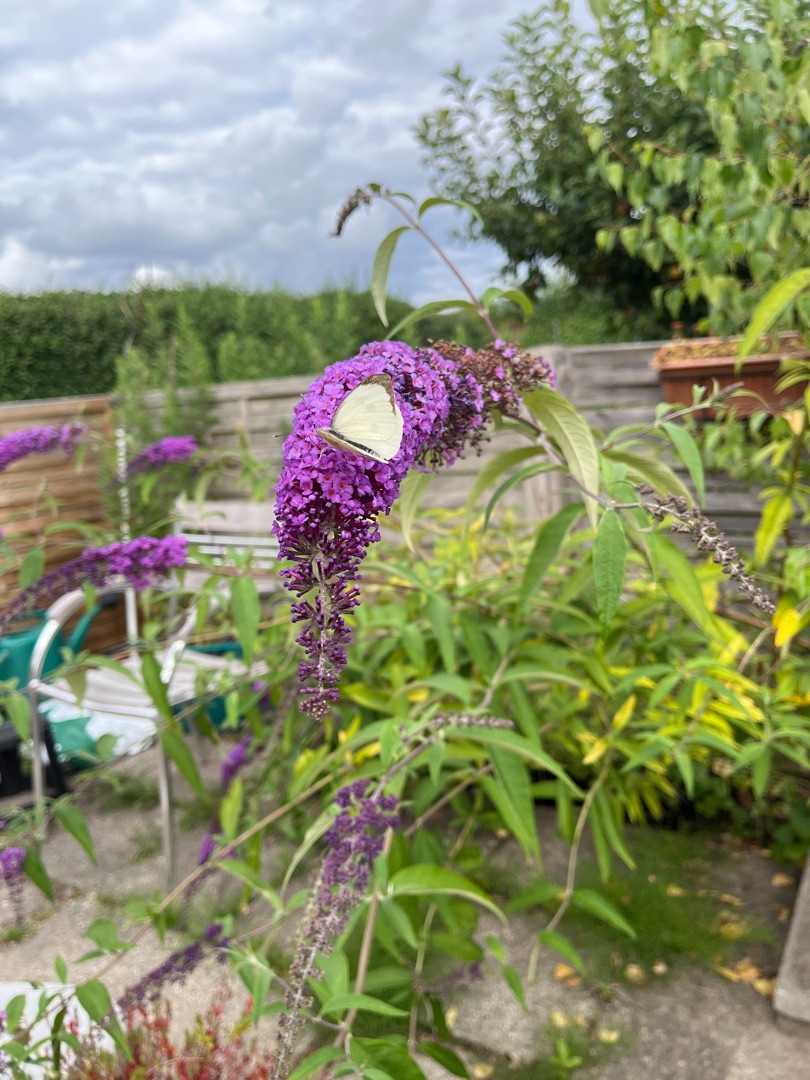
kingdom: Animalia
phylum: Arthropoda
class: Insecta
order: Lepidoptera
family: Pieridae
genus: Pieris
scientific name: Pieris brassicae
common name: Stor kålsommerfugl
